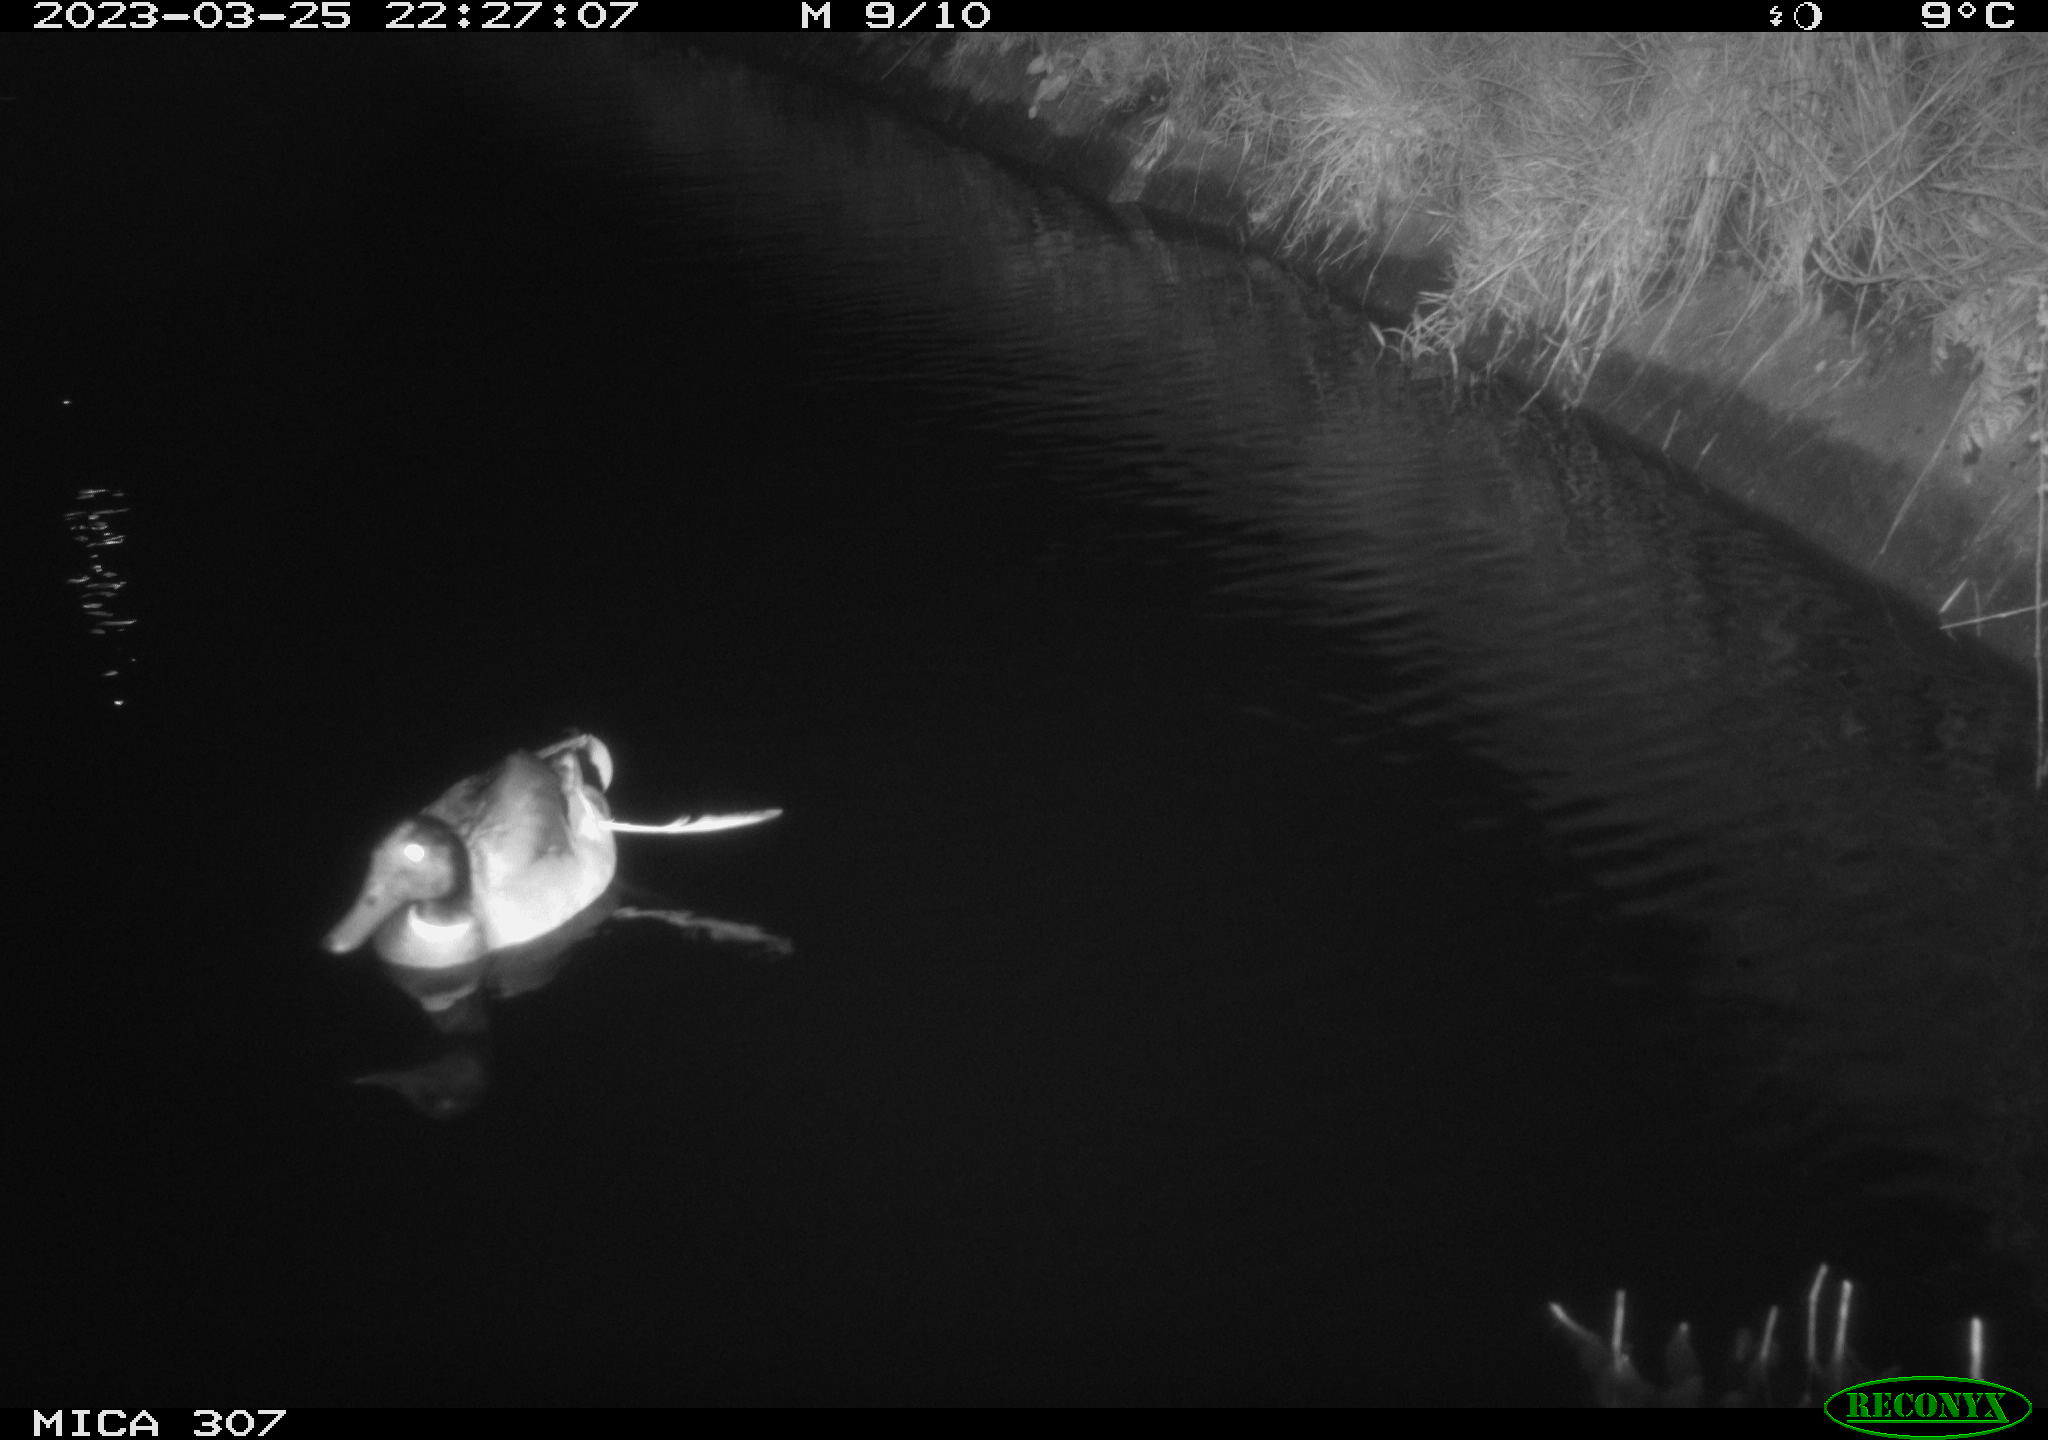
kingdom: Animalia
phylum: Chordata
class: Aves
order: Anseriformes
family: Anatidae
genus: Anas
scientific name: Anas
